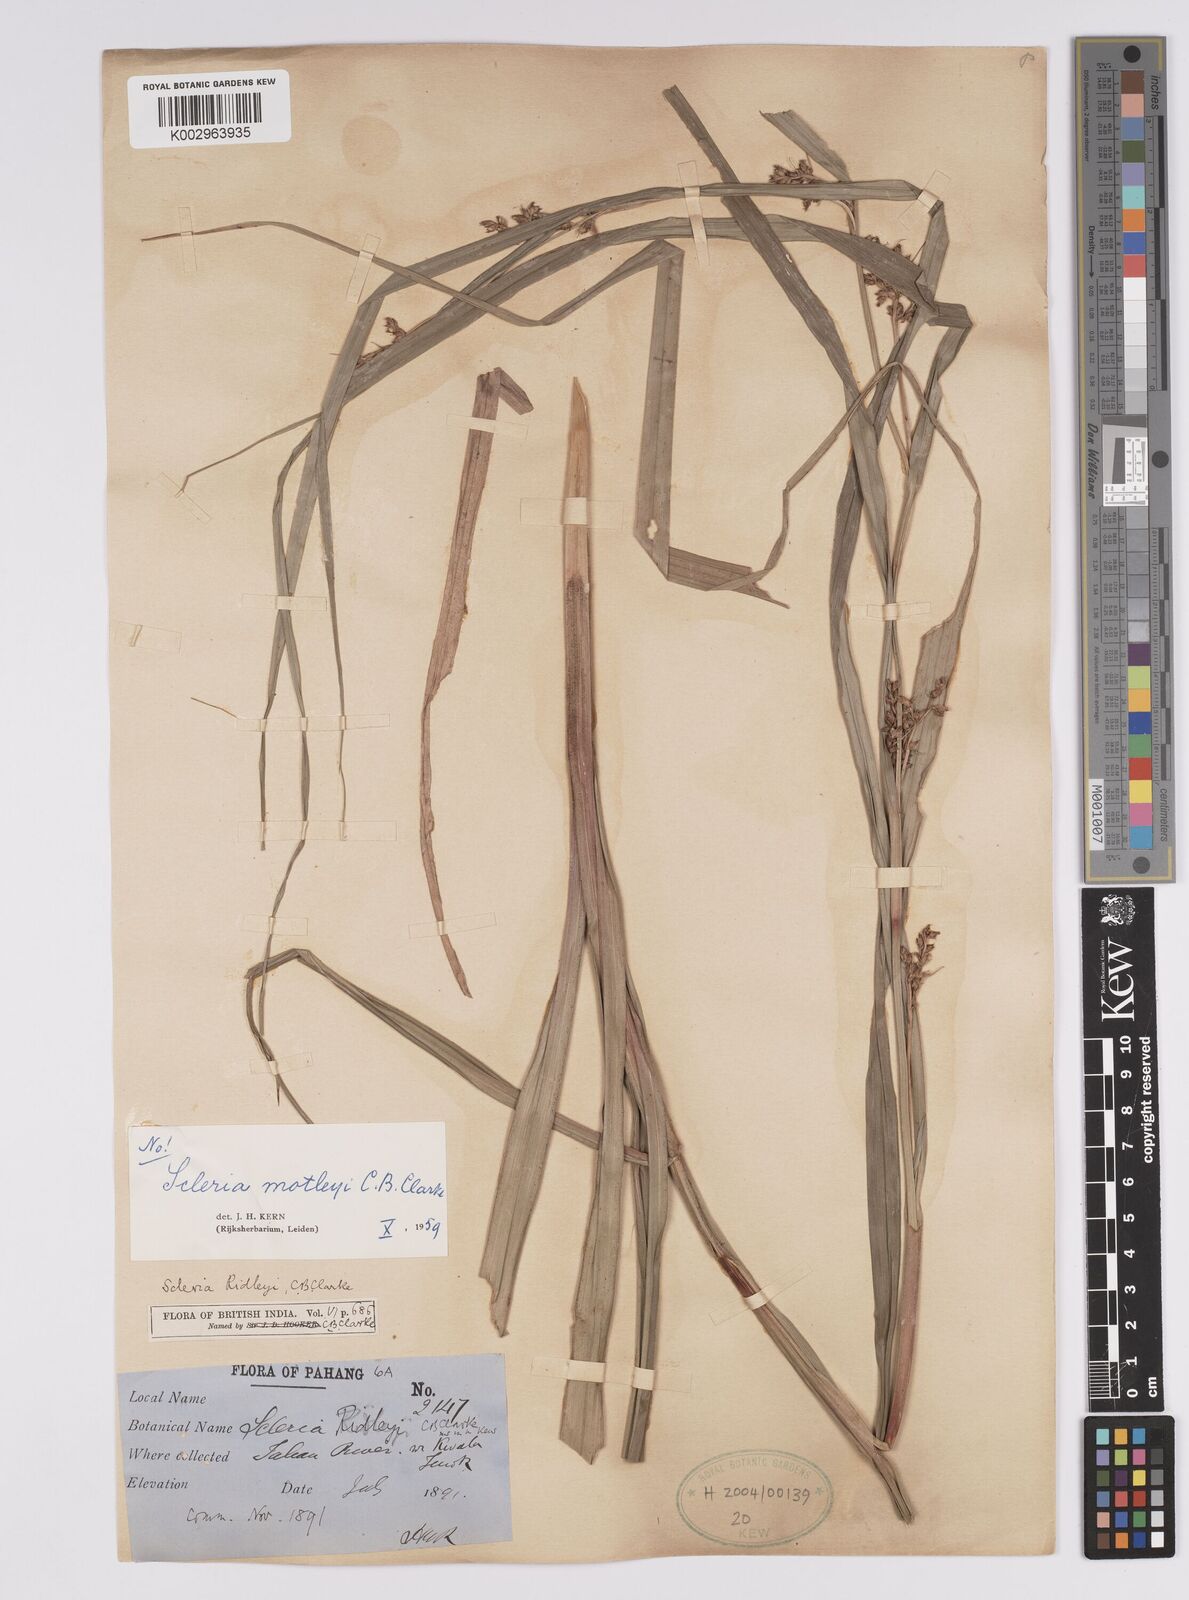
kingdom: Plantae
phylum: Tracheophyta
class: Liliopsida
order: Poales
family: Cyperaceae
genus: Scleria
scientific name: Scleria motleyi
